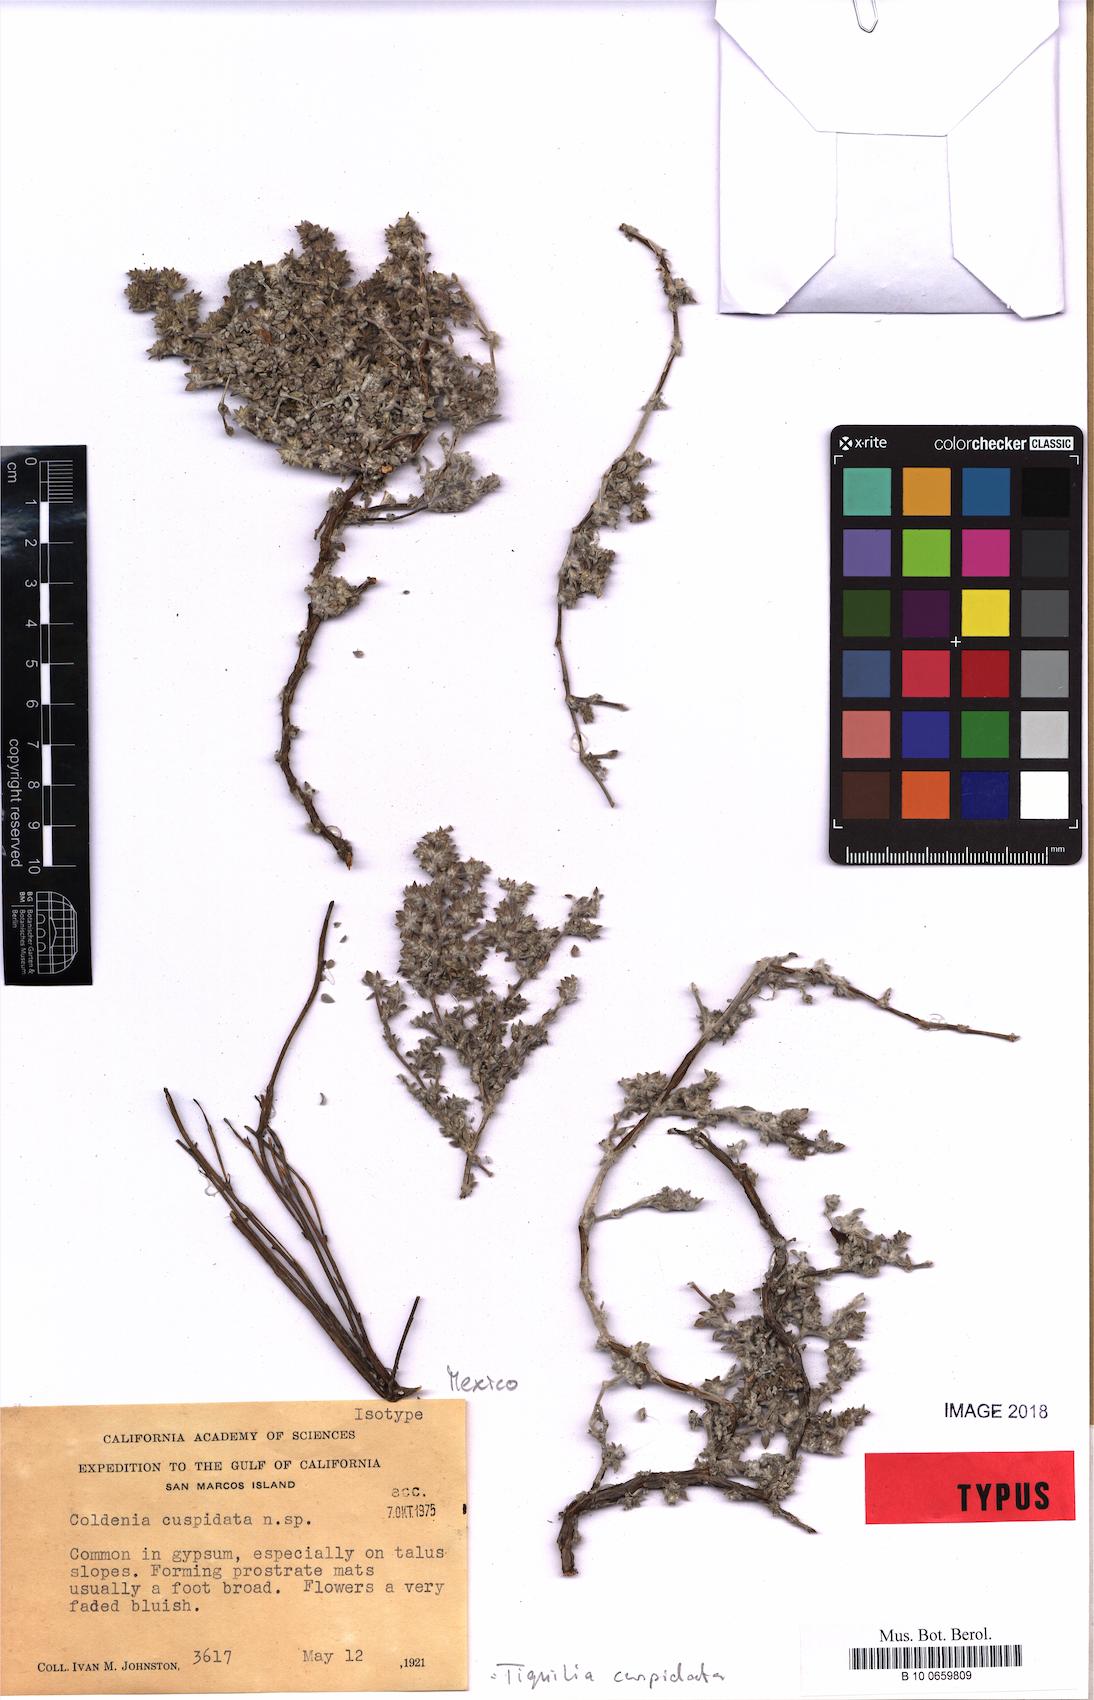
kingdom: Plantae
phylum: Tracheophyta
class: Magnoliopsida
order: Boraginales
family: Ehretiaceae
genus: Tiquilia
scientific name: Tiquilia cuspidata
